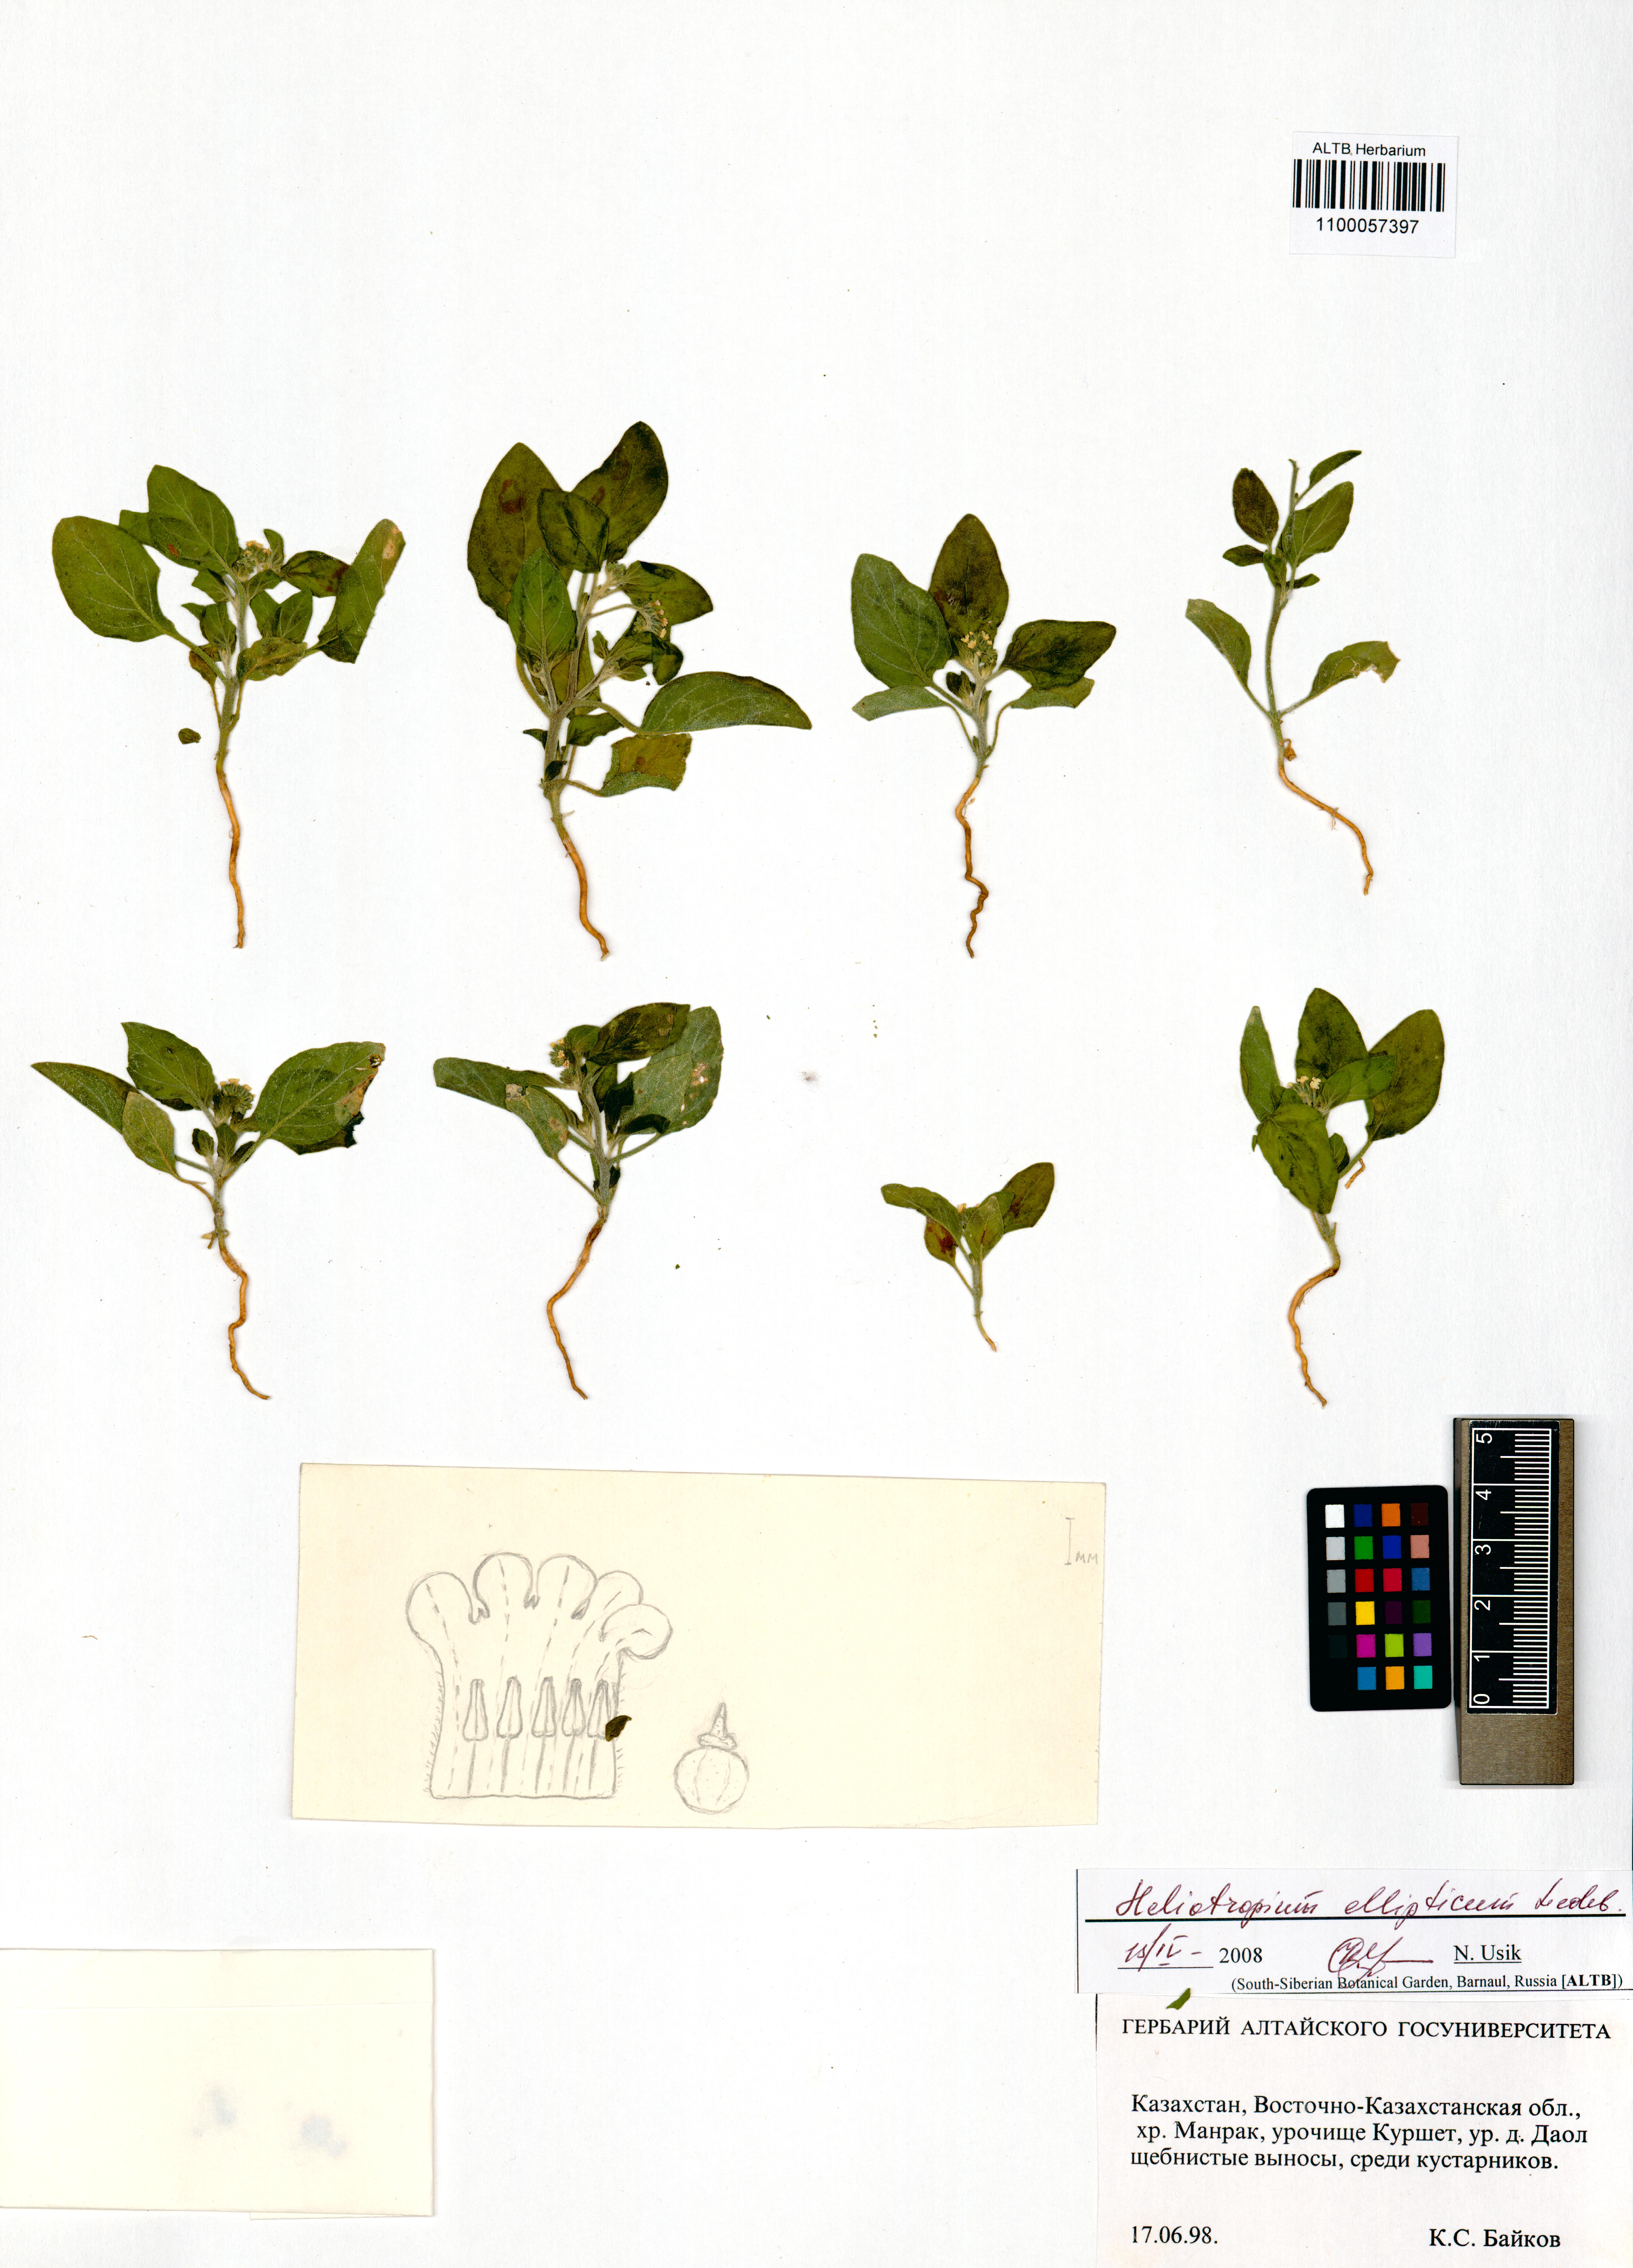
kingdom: Plantae
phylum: Tracheophyta
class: Magnoliopsida
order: Boraginales
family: Heliotropiaceae
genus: Heliotropium
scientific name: Heliotropium ellipticum
